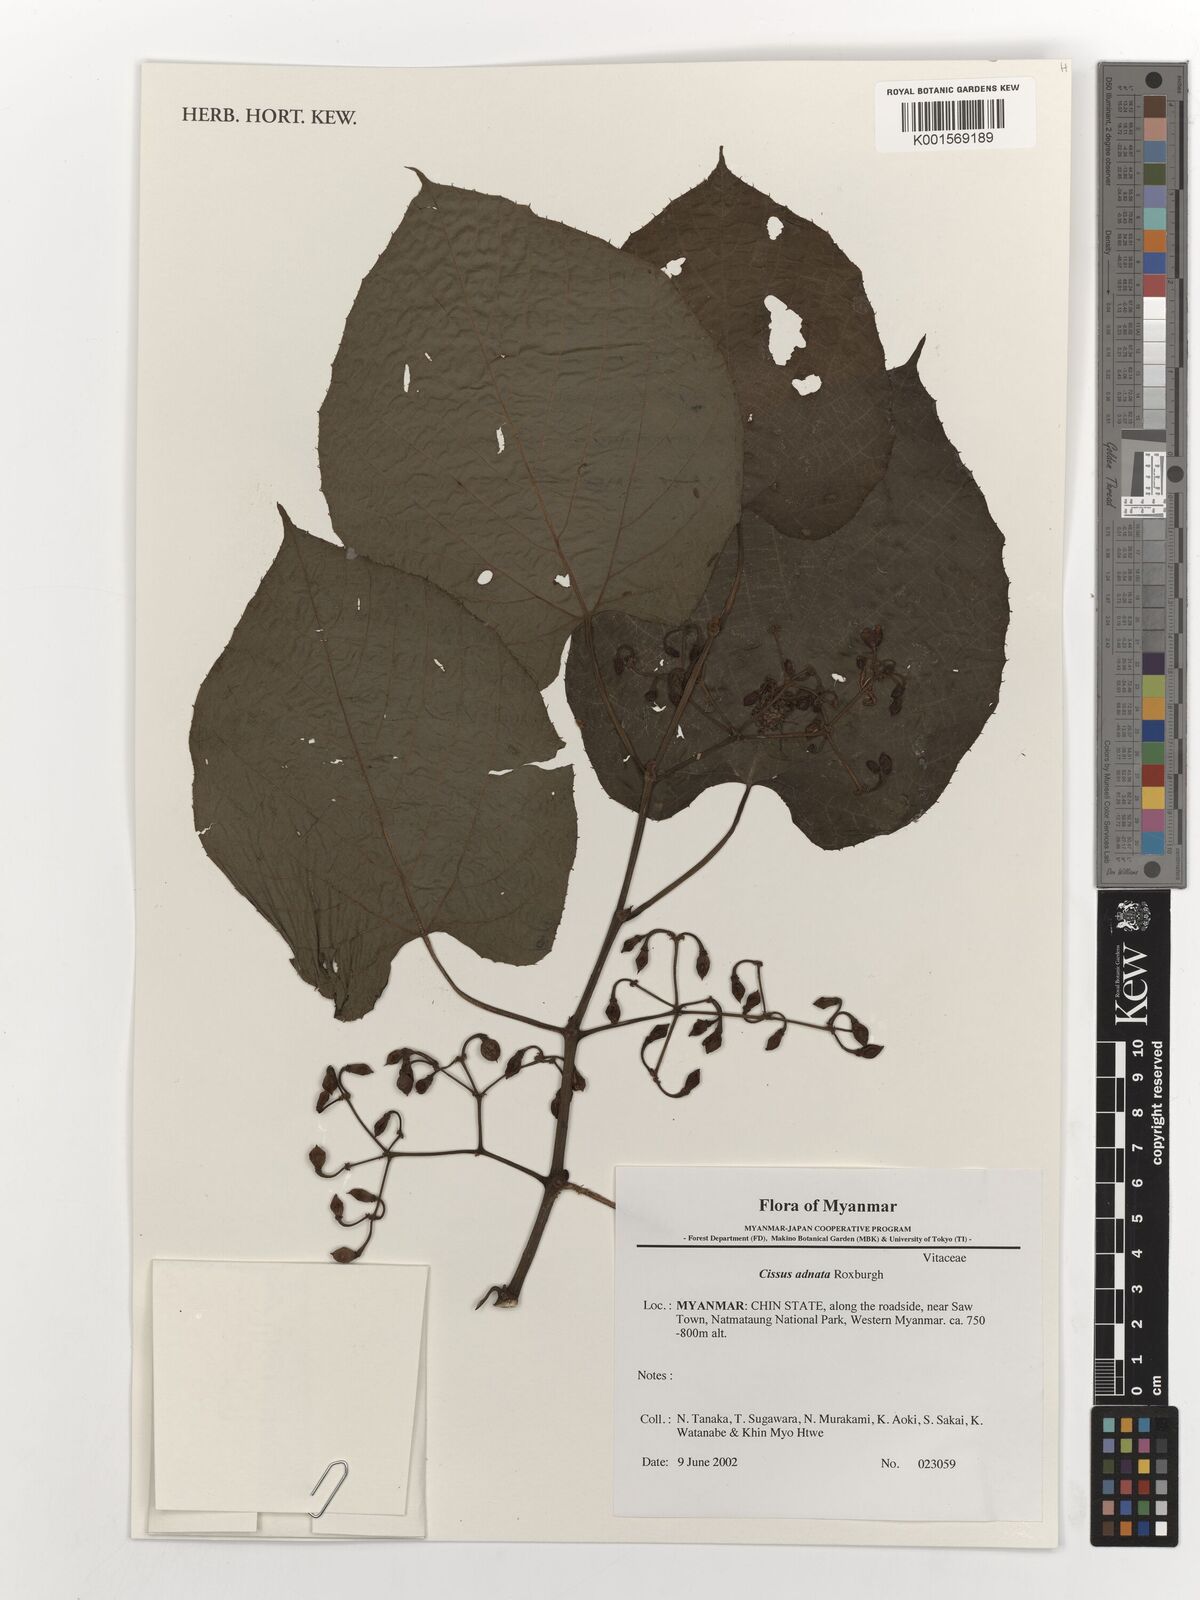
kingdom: Plantae
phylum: Tracheophyta
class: Magnoliopsida
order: Vitales
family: Vitaceae
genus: Cissus
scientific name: Cissus adnata
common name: Heart-leaf-grape
